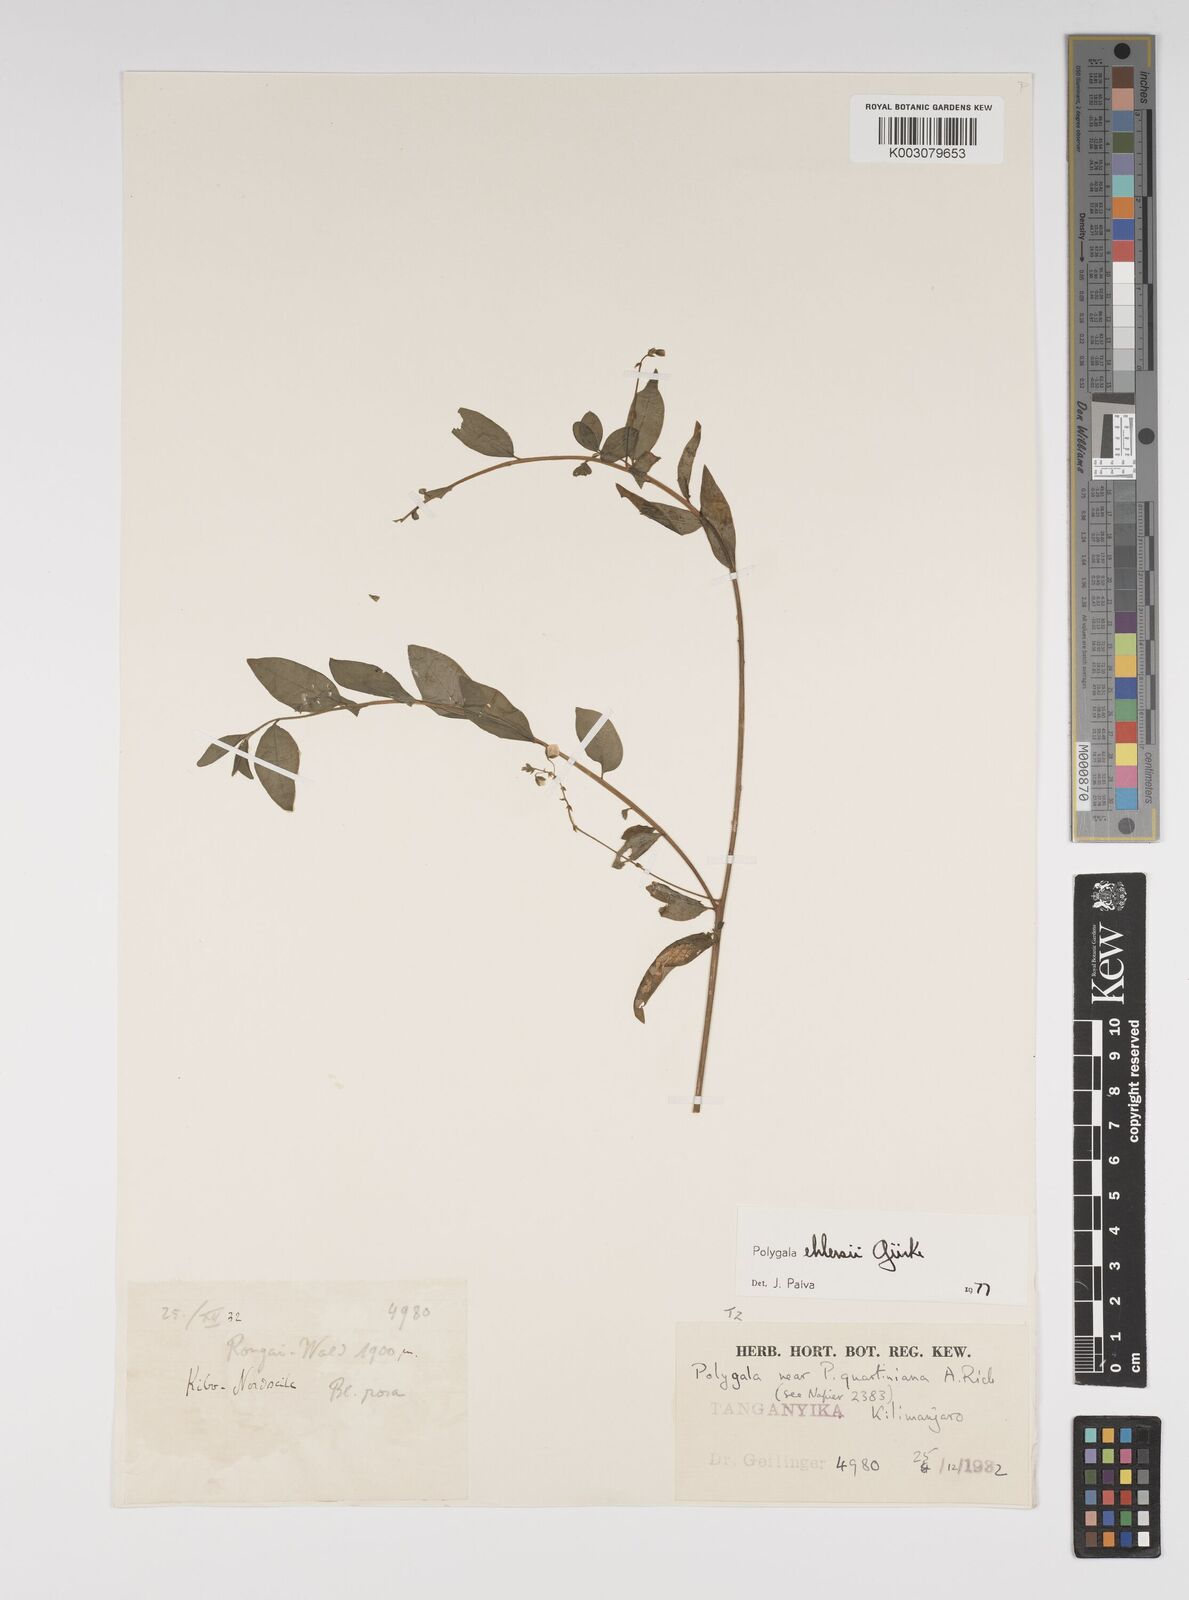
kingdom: Plantae
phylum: Tracheophyta
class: Magnoliopsida
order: Fabales
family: Polygalaceae
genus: Polygala
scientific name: Polygala ehlersii
